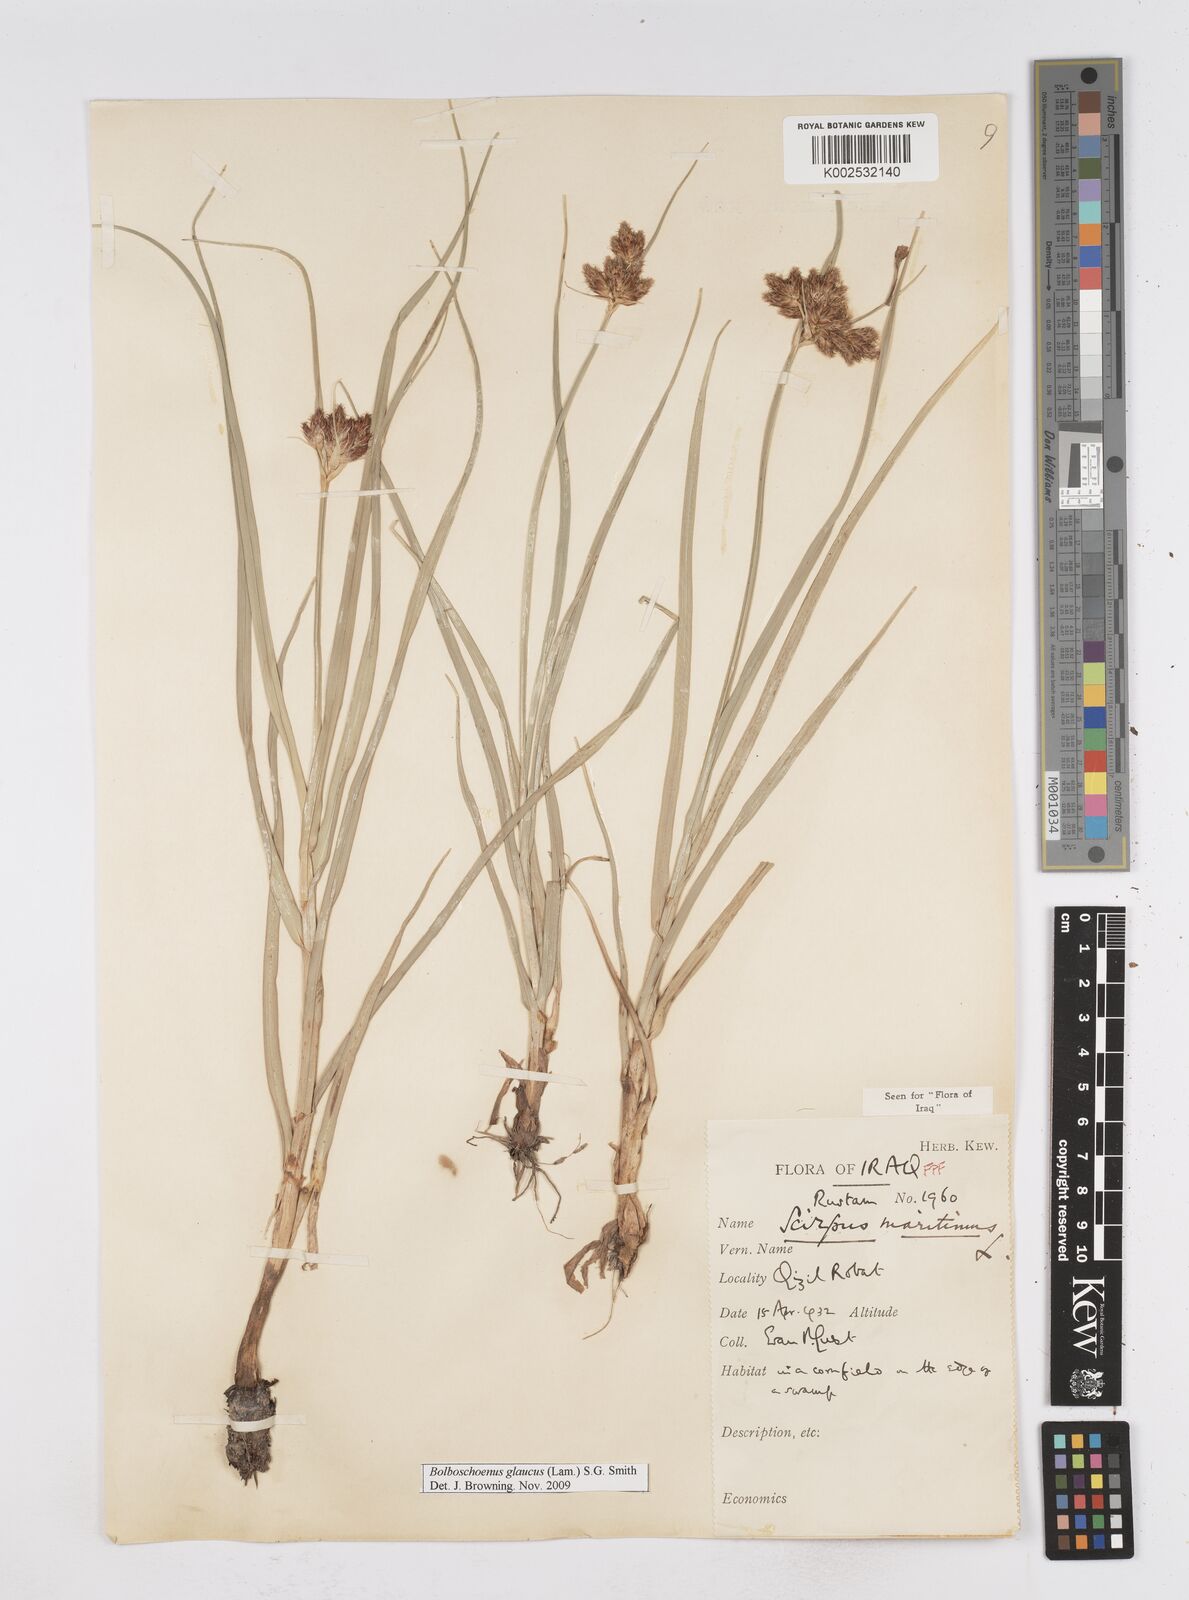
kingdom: Plantae
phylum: Tracheophyta
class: Liliopsida
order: Poales
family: Cyperaceae
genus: Bolboschoenus
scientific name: Bolboschoenus maritimus
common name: Sea club-rush
